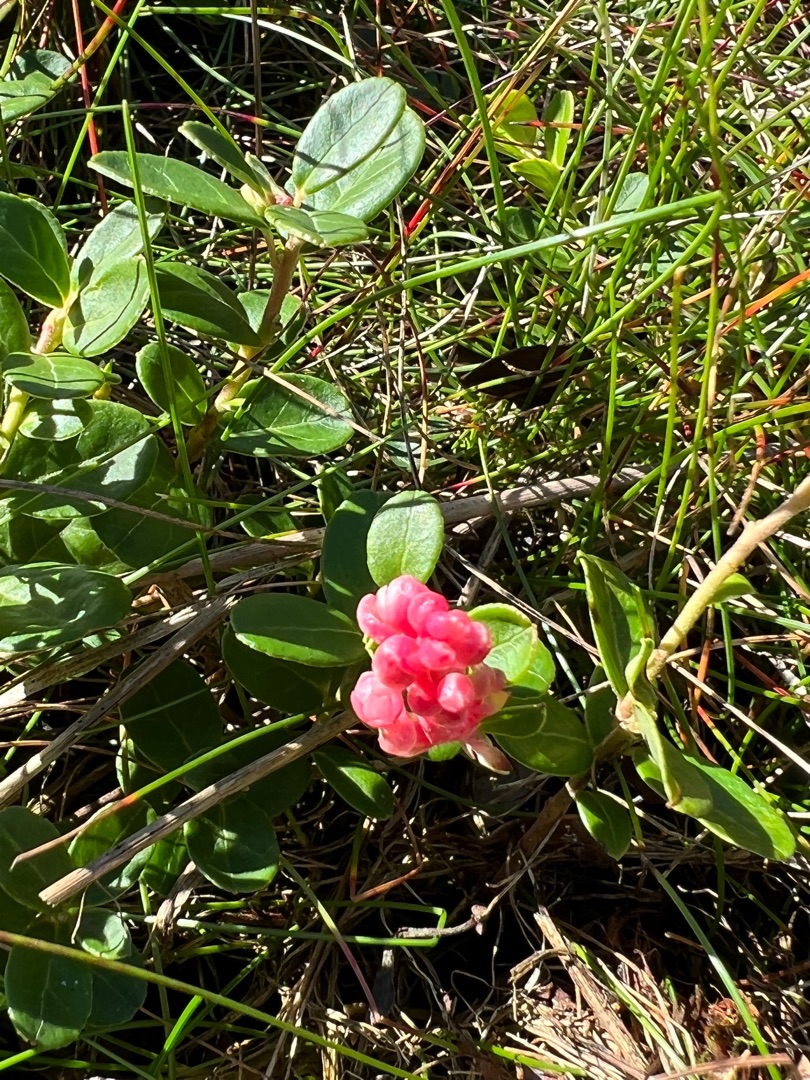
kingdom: Plantae
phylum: Tracheophyta
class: Magnoliopsida
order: Ericales
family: Ericaceae
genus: Vaccinium
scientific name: Vaccinium vitis-idaea
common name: Tyttebær
